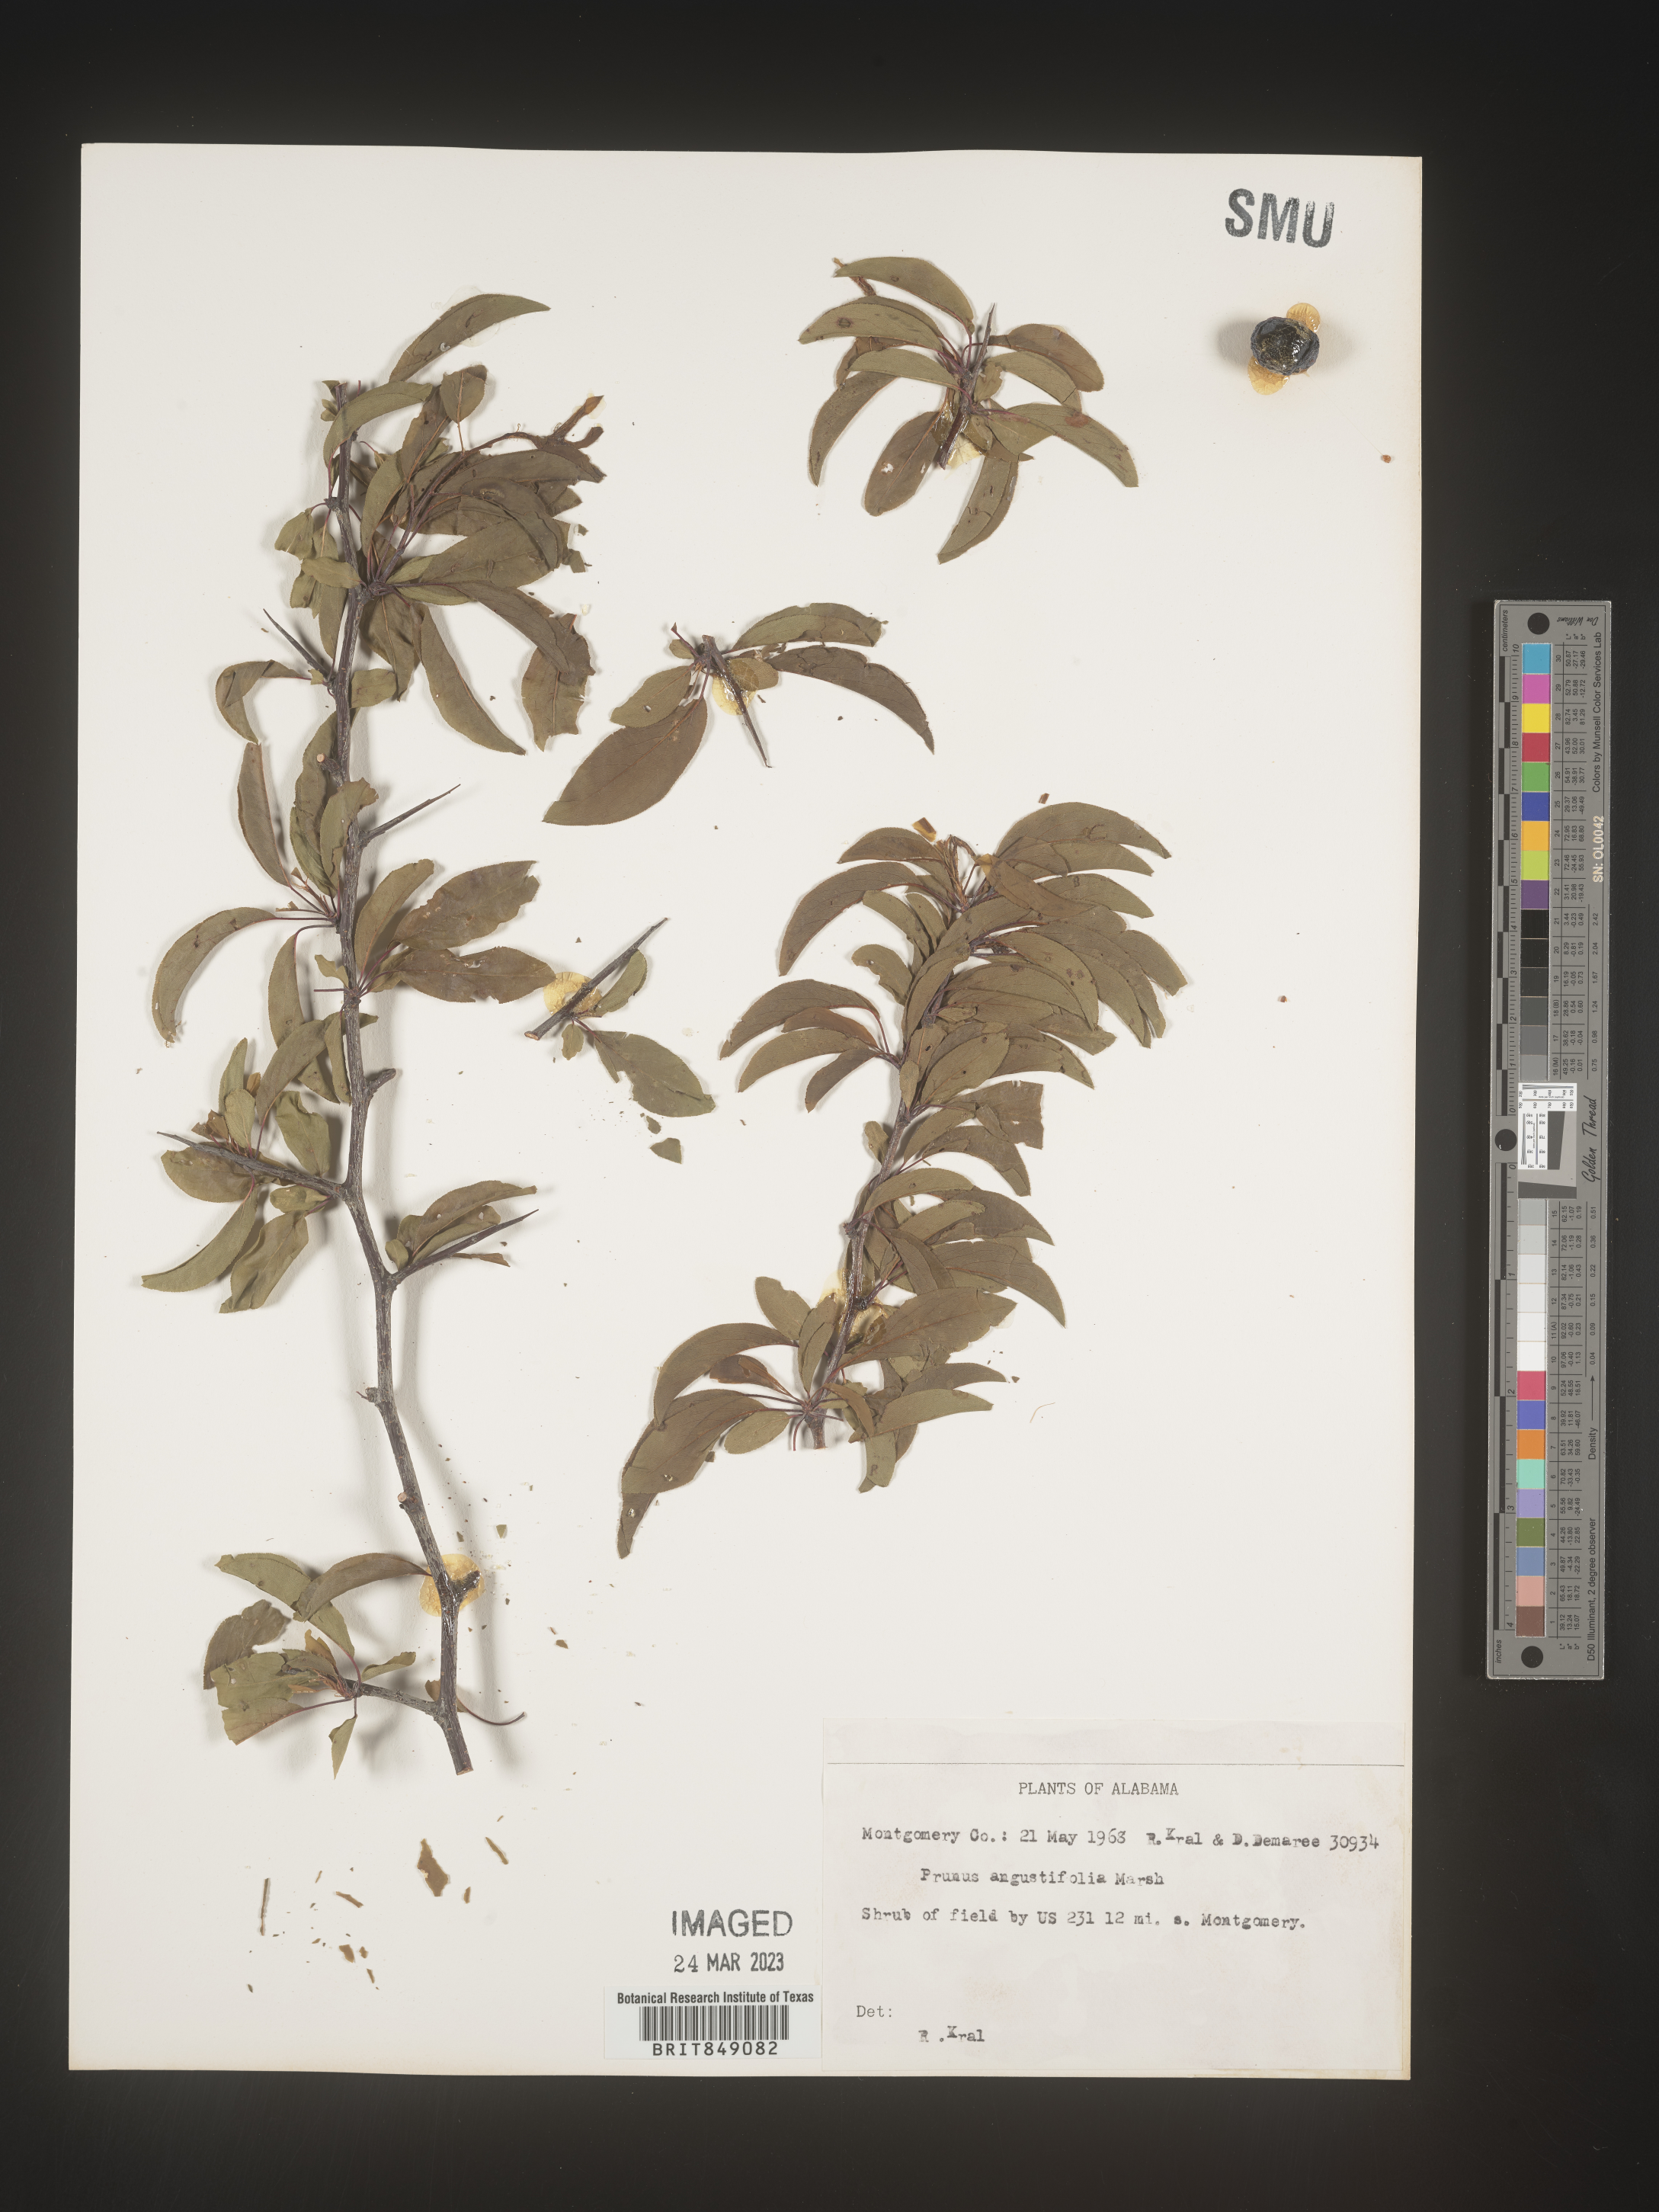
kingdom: Plantae
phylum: Tracheophyta
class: Magnoliopsida
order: Rosales
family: Rosaceae
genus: Prunus
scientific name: Prunus angustifolia
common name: Cherokee plum
